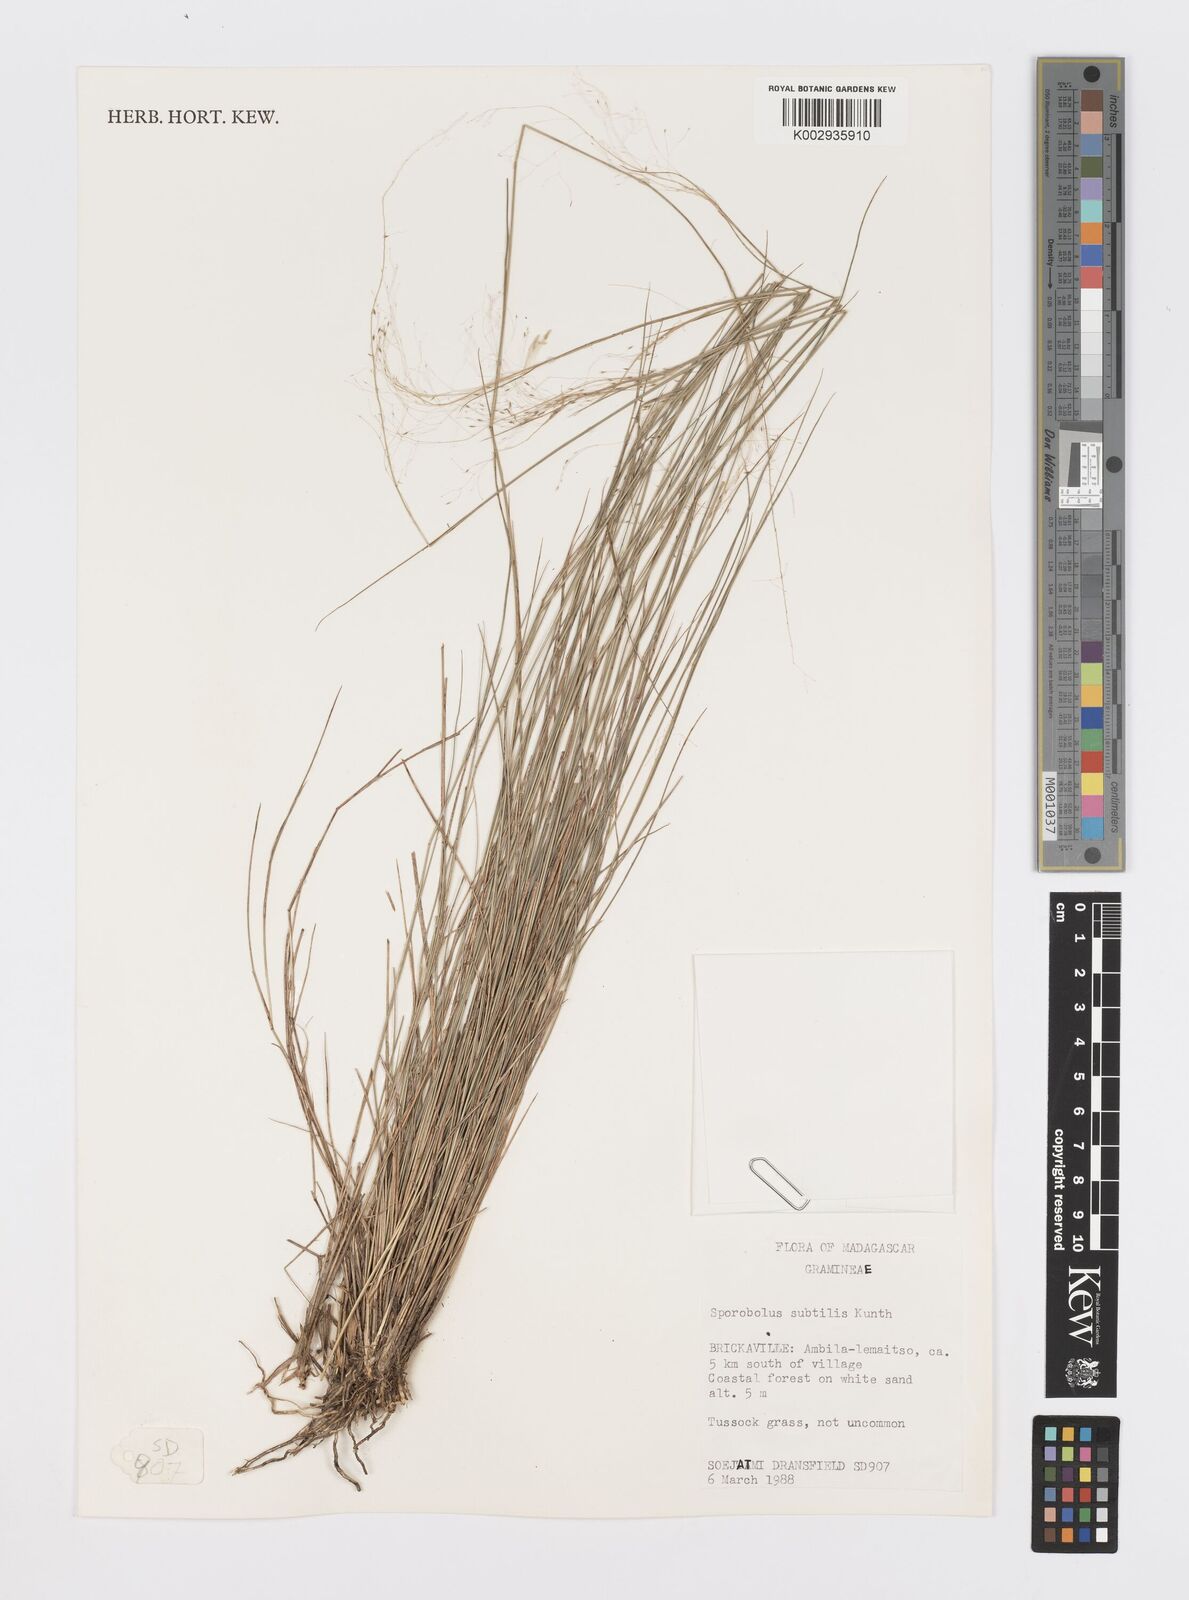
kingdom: Plantae
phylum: Tracheophyta
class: Liliopsida
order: Poales
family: Poaceae
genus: Sporobolus
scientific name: Sporobolus subtilis
